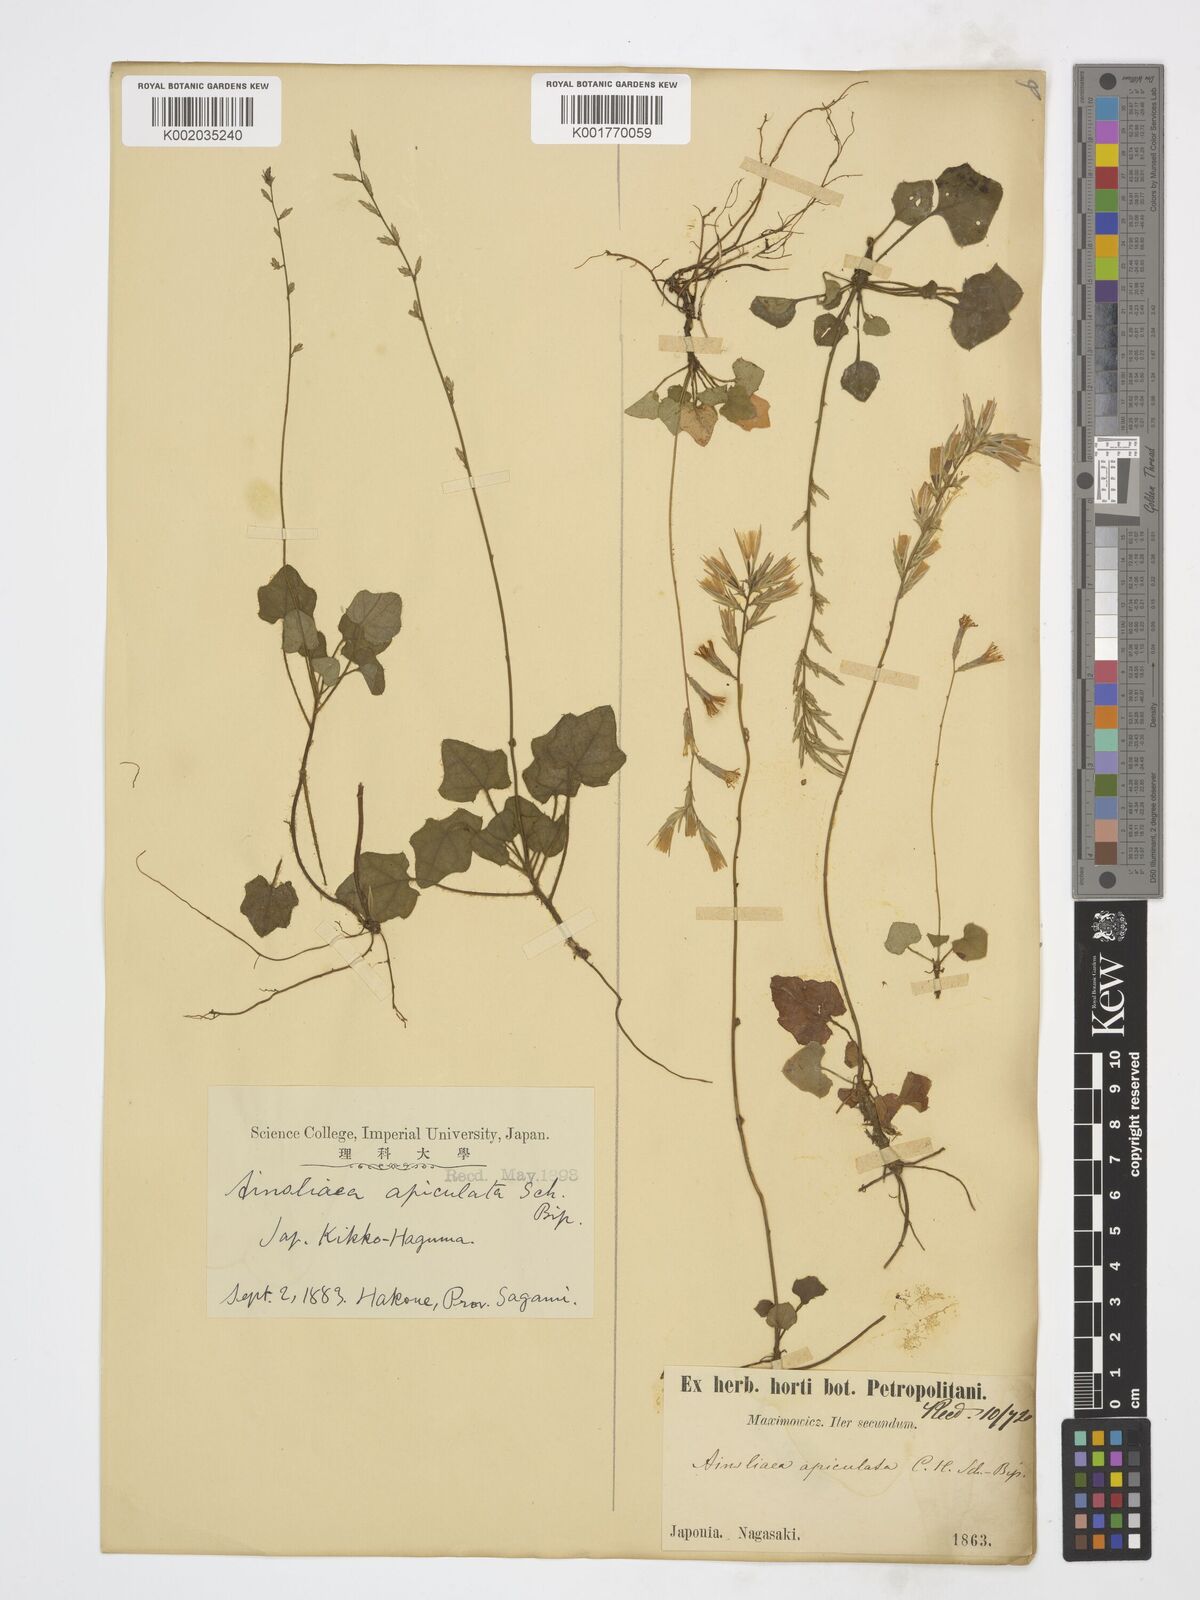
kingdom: Plantae
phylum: Tracheophyta
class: Magnoliopsida
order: Asterales
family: Asteraceae
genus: Ainsliaea
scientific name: Ainsliaea apiculata
